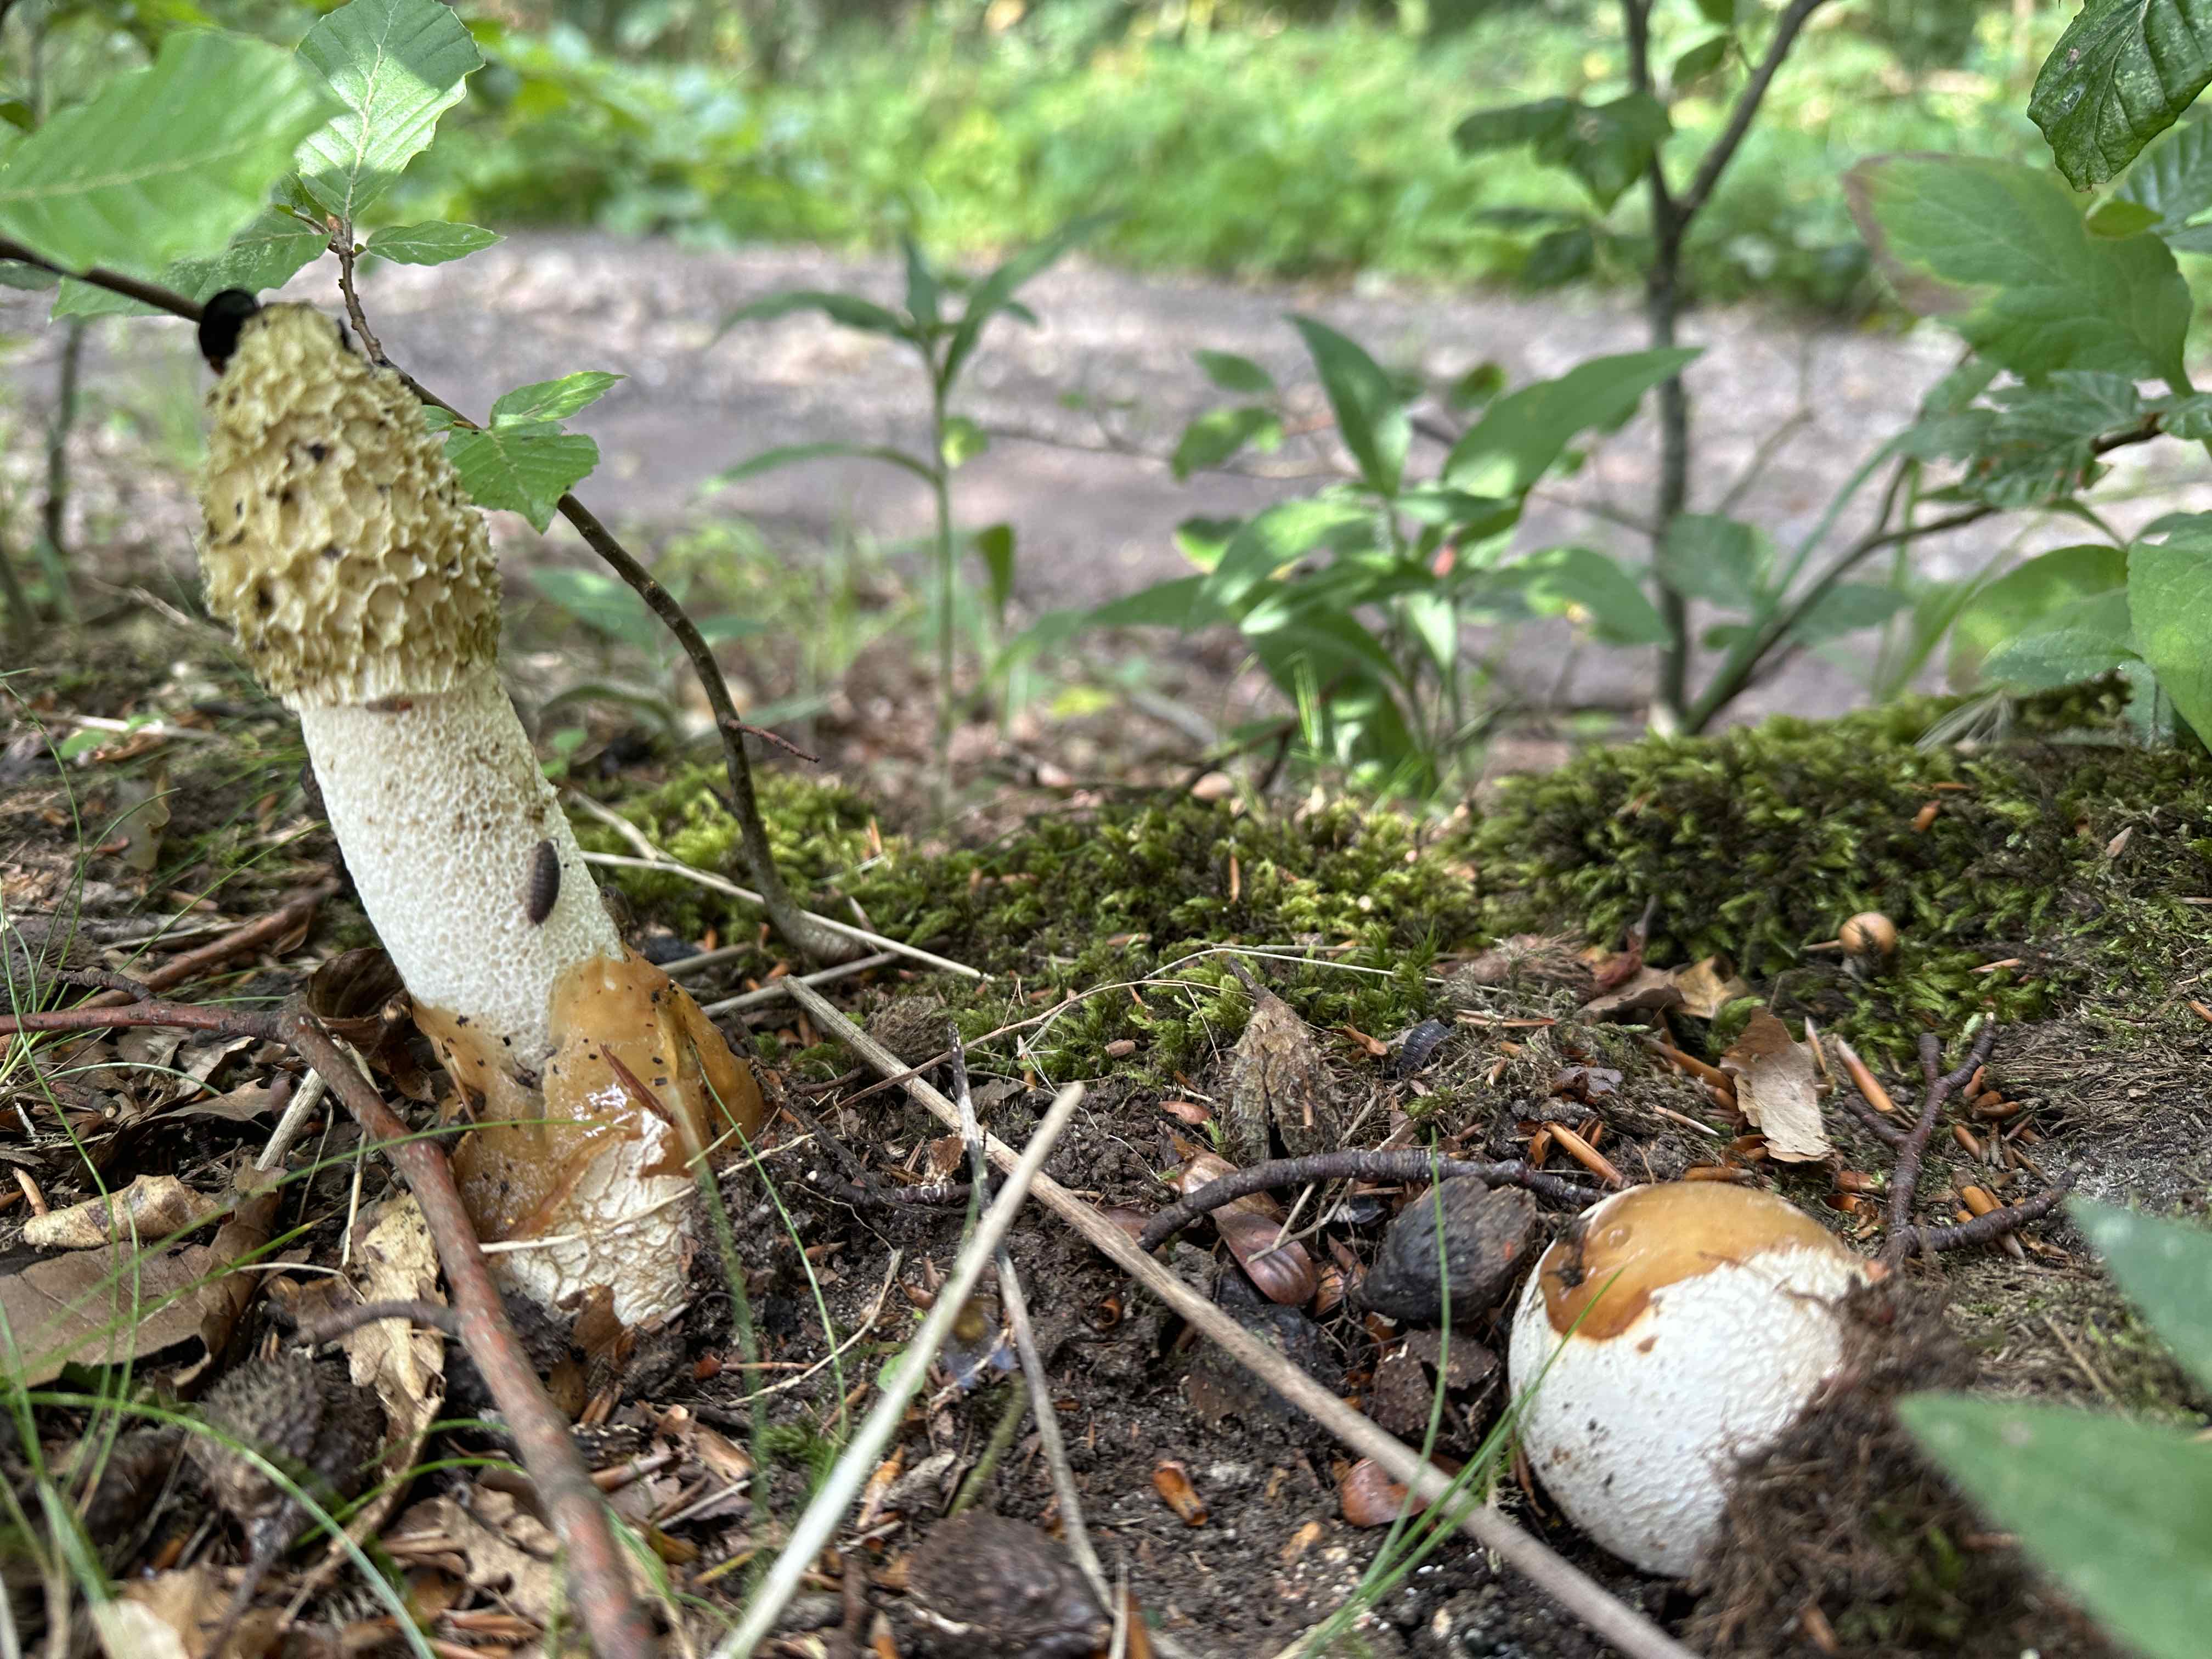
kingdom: Fungi
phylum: Basidiomycota
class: Agaricomycetes
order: Phallales
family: Phallaceae
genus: Phallus
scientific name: Phallus impudicus
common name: almindelig stinksvamp
